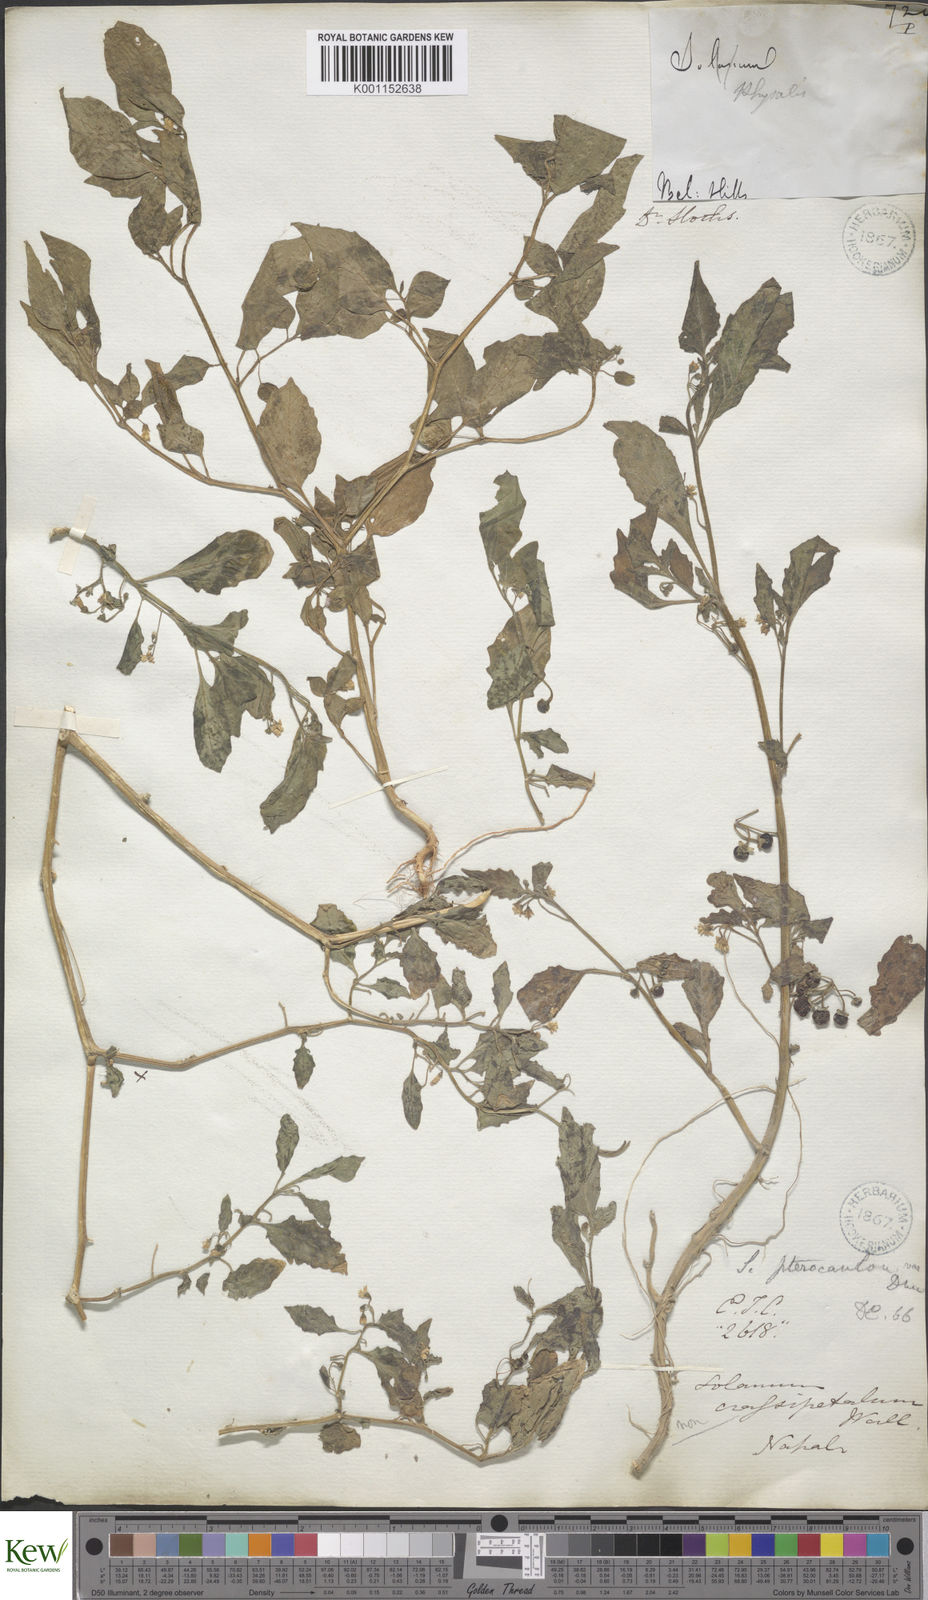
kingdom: Plantae
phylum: Tracheophyta
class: Magnoliopsida
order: Solanales
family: Solanaceae
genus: Solanum
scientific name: Solanum nigrum
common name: Black nightshade
